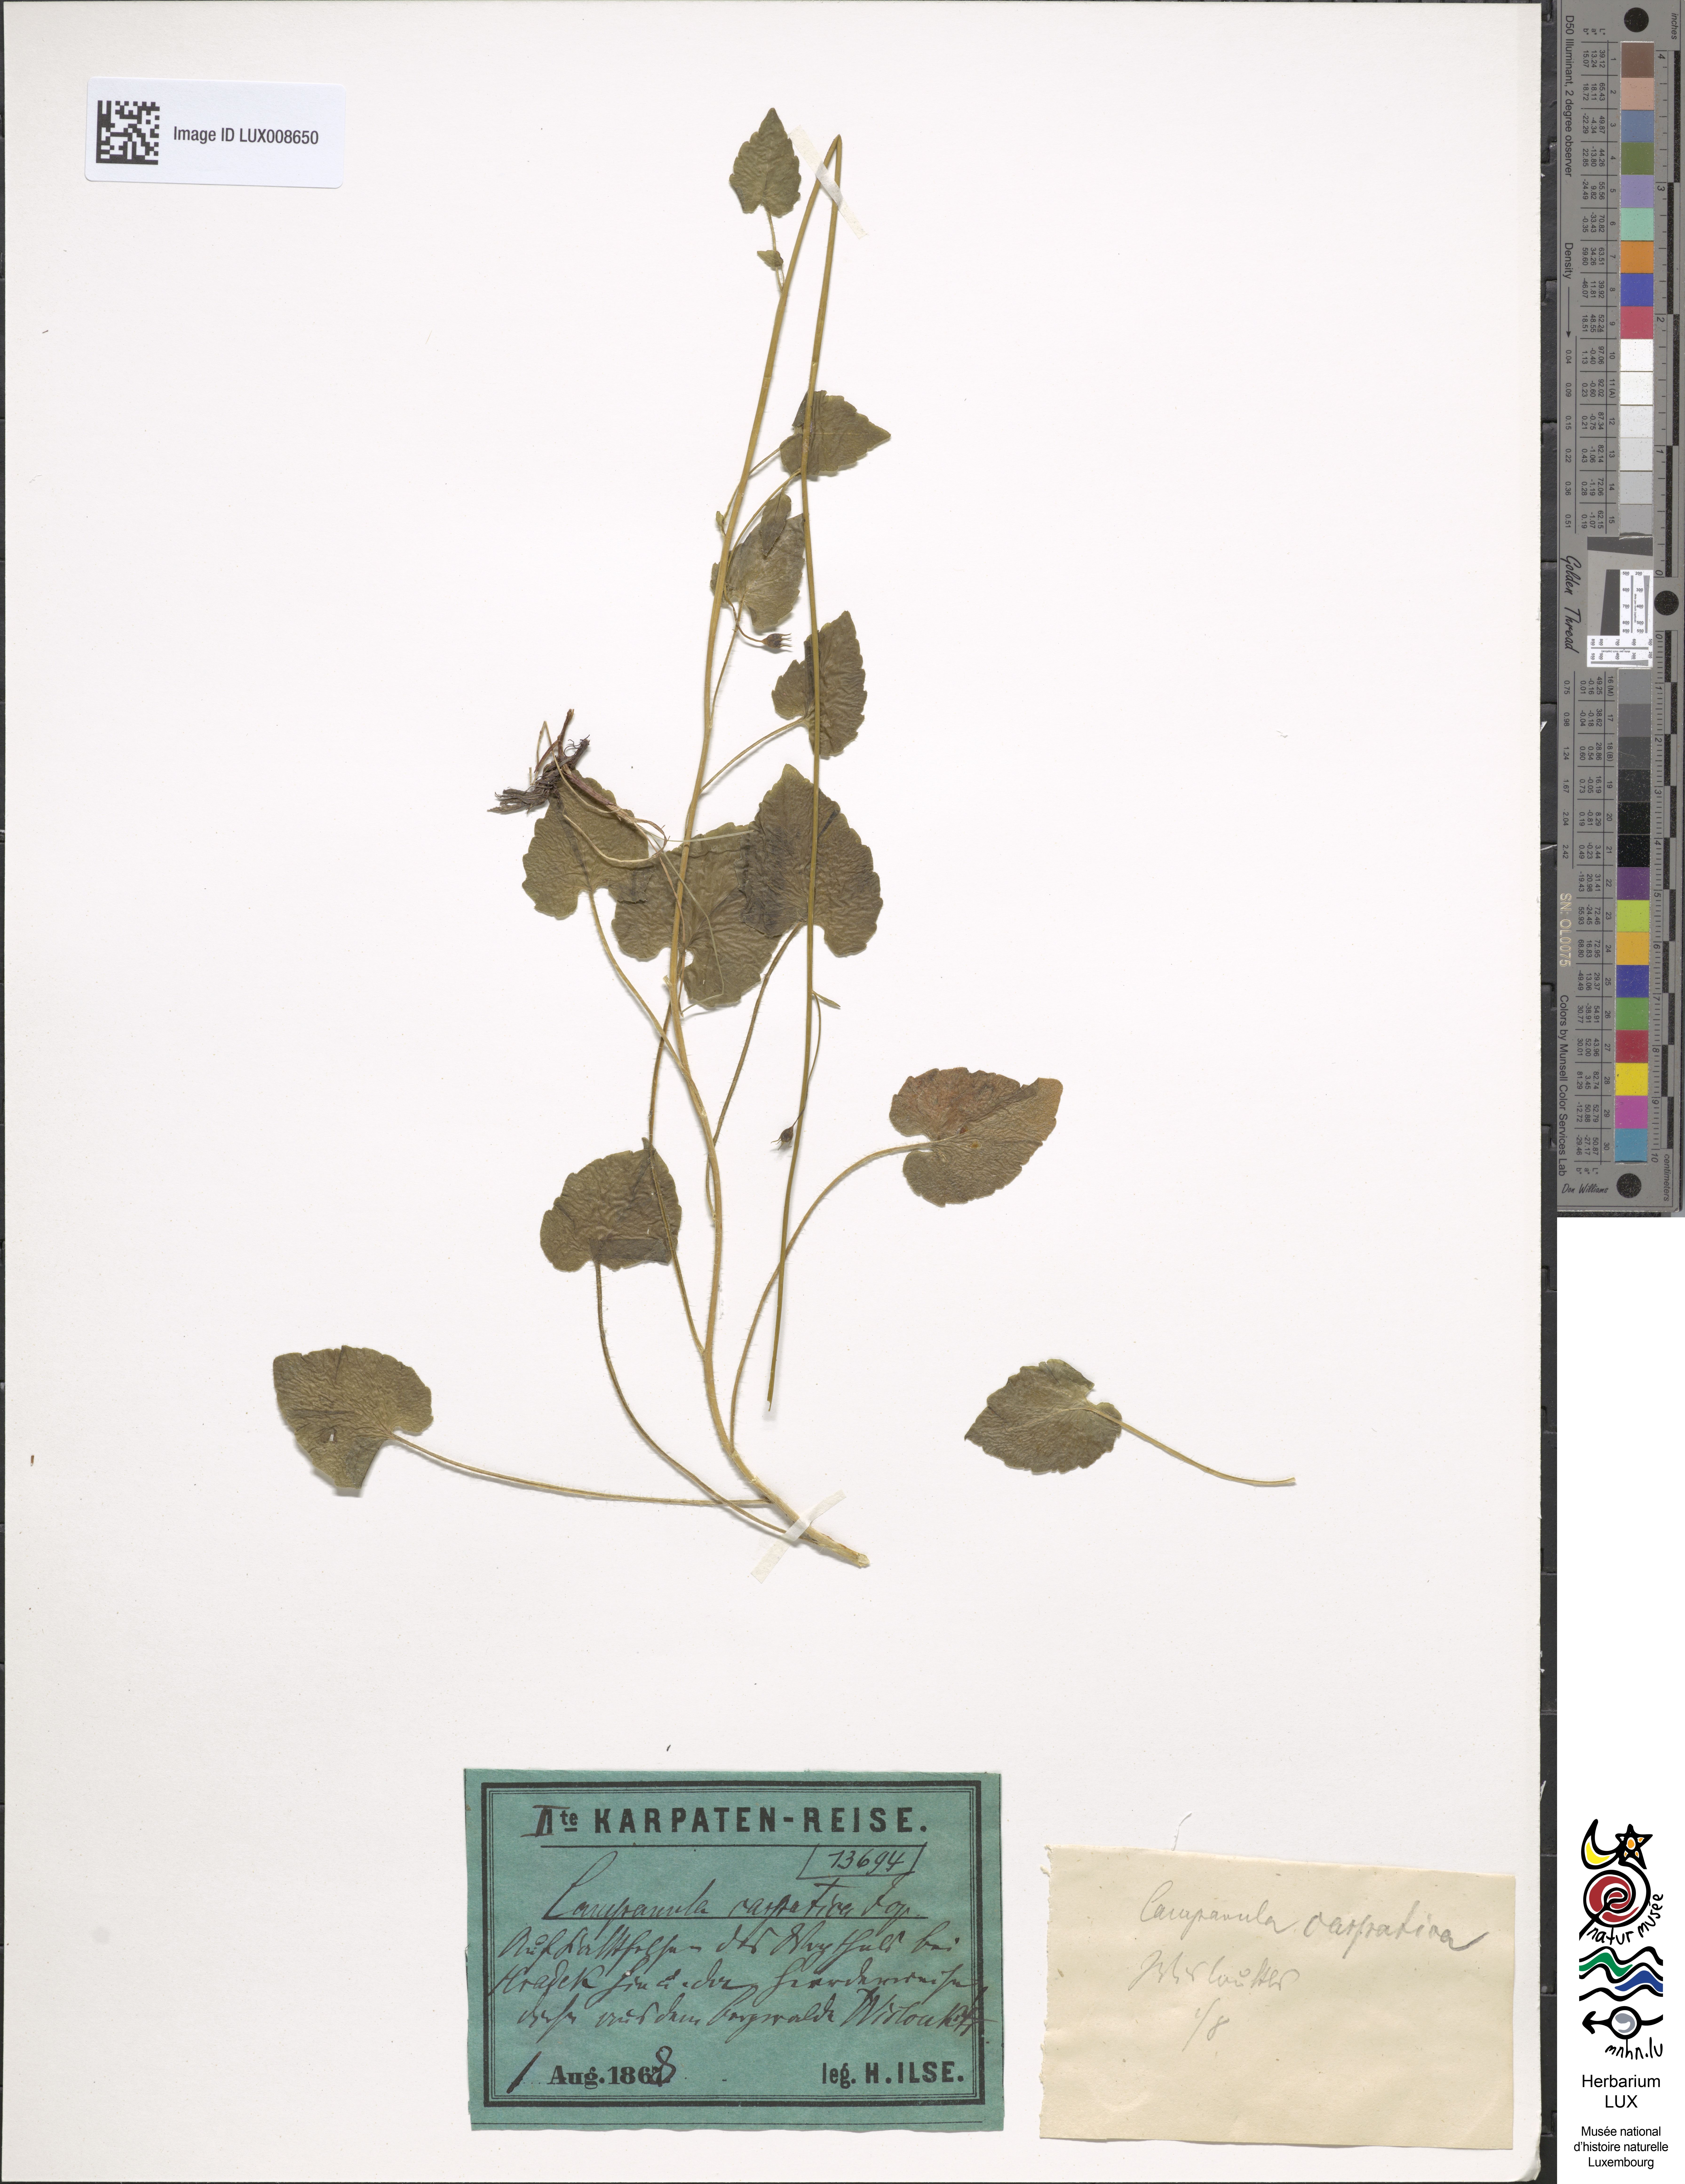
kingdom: Plantae
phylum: Tracheophyta
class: Magnoliopsida
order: Asterales
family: Campanulaceae
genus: Campanula
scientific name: Campanula carpatica
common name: Tussock bellflower
